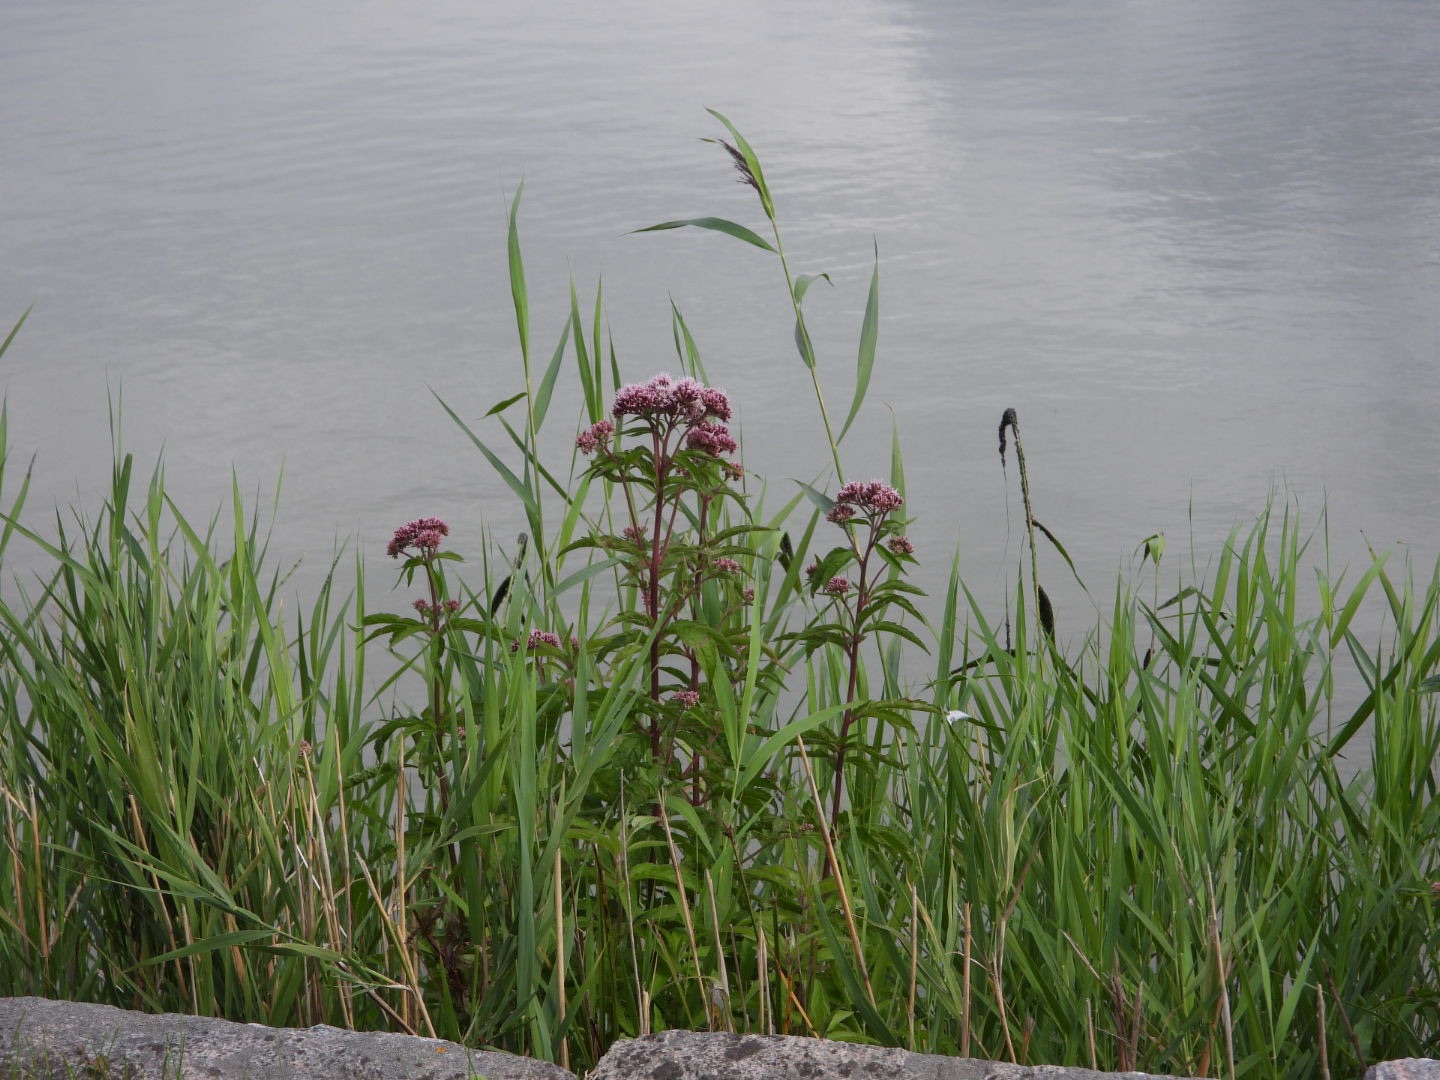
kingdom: Plantae
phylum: Tracheophyta
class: Magnoliopsida
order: Asterales
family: Asteraceae
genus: Eupatorium
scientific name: Eupatorium cannabinum
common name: Hjortetrøst
